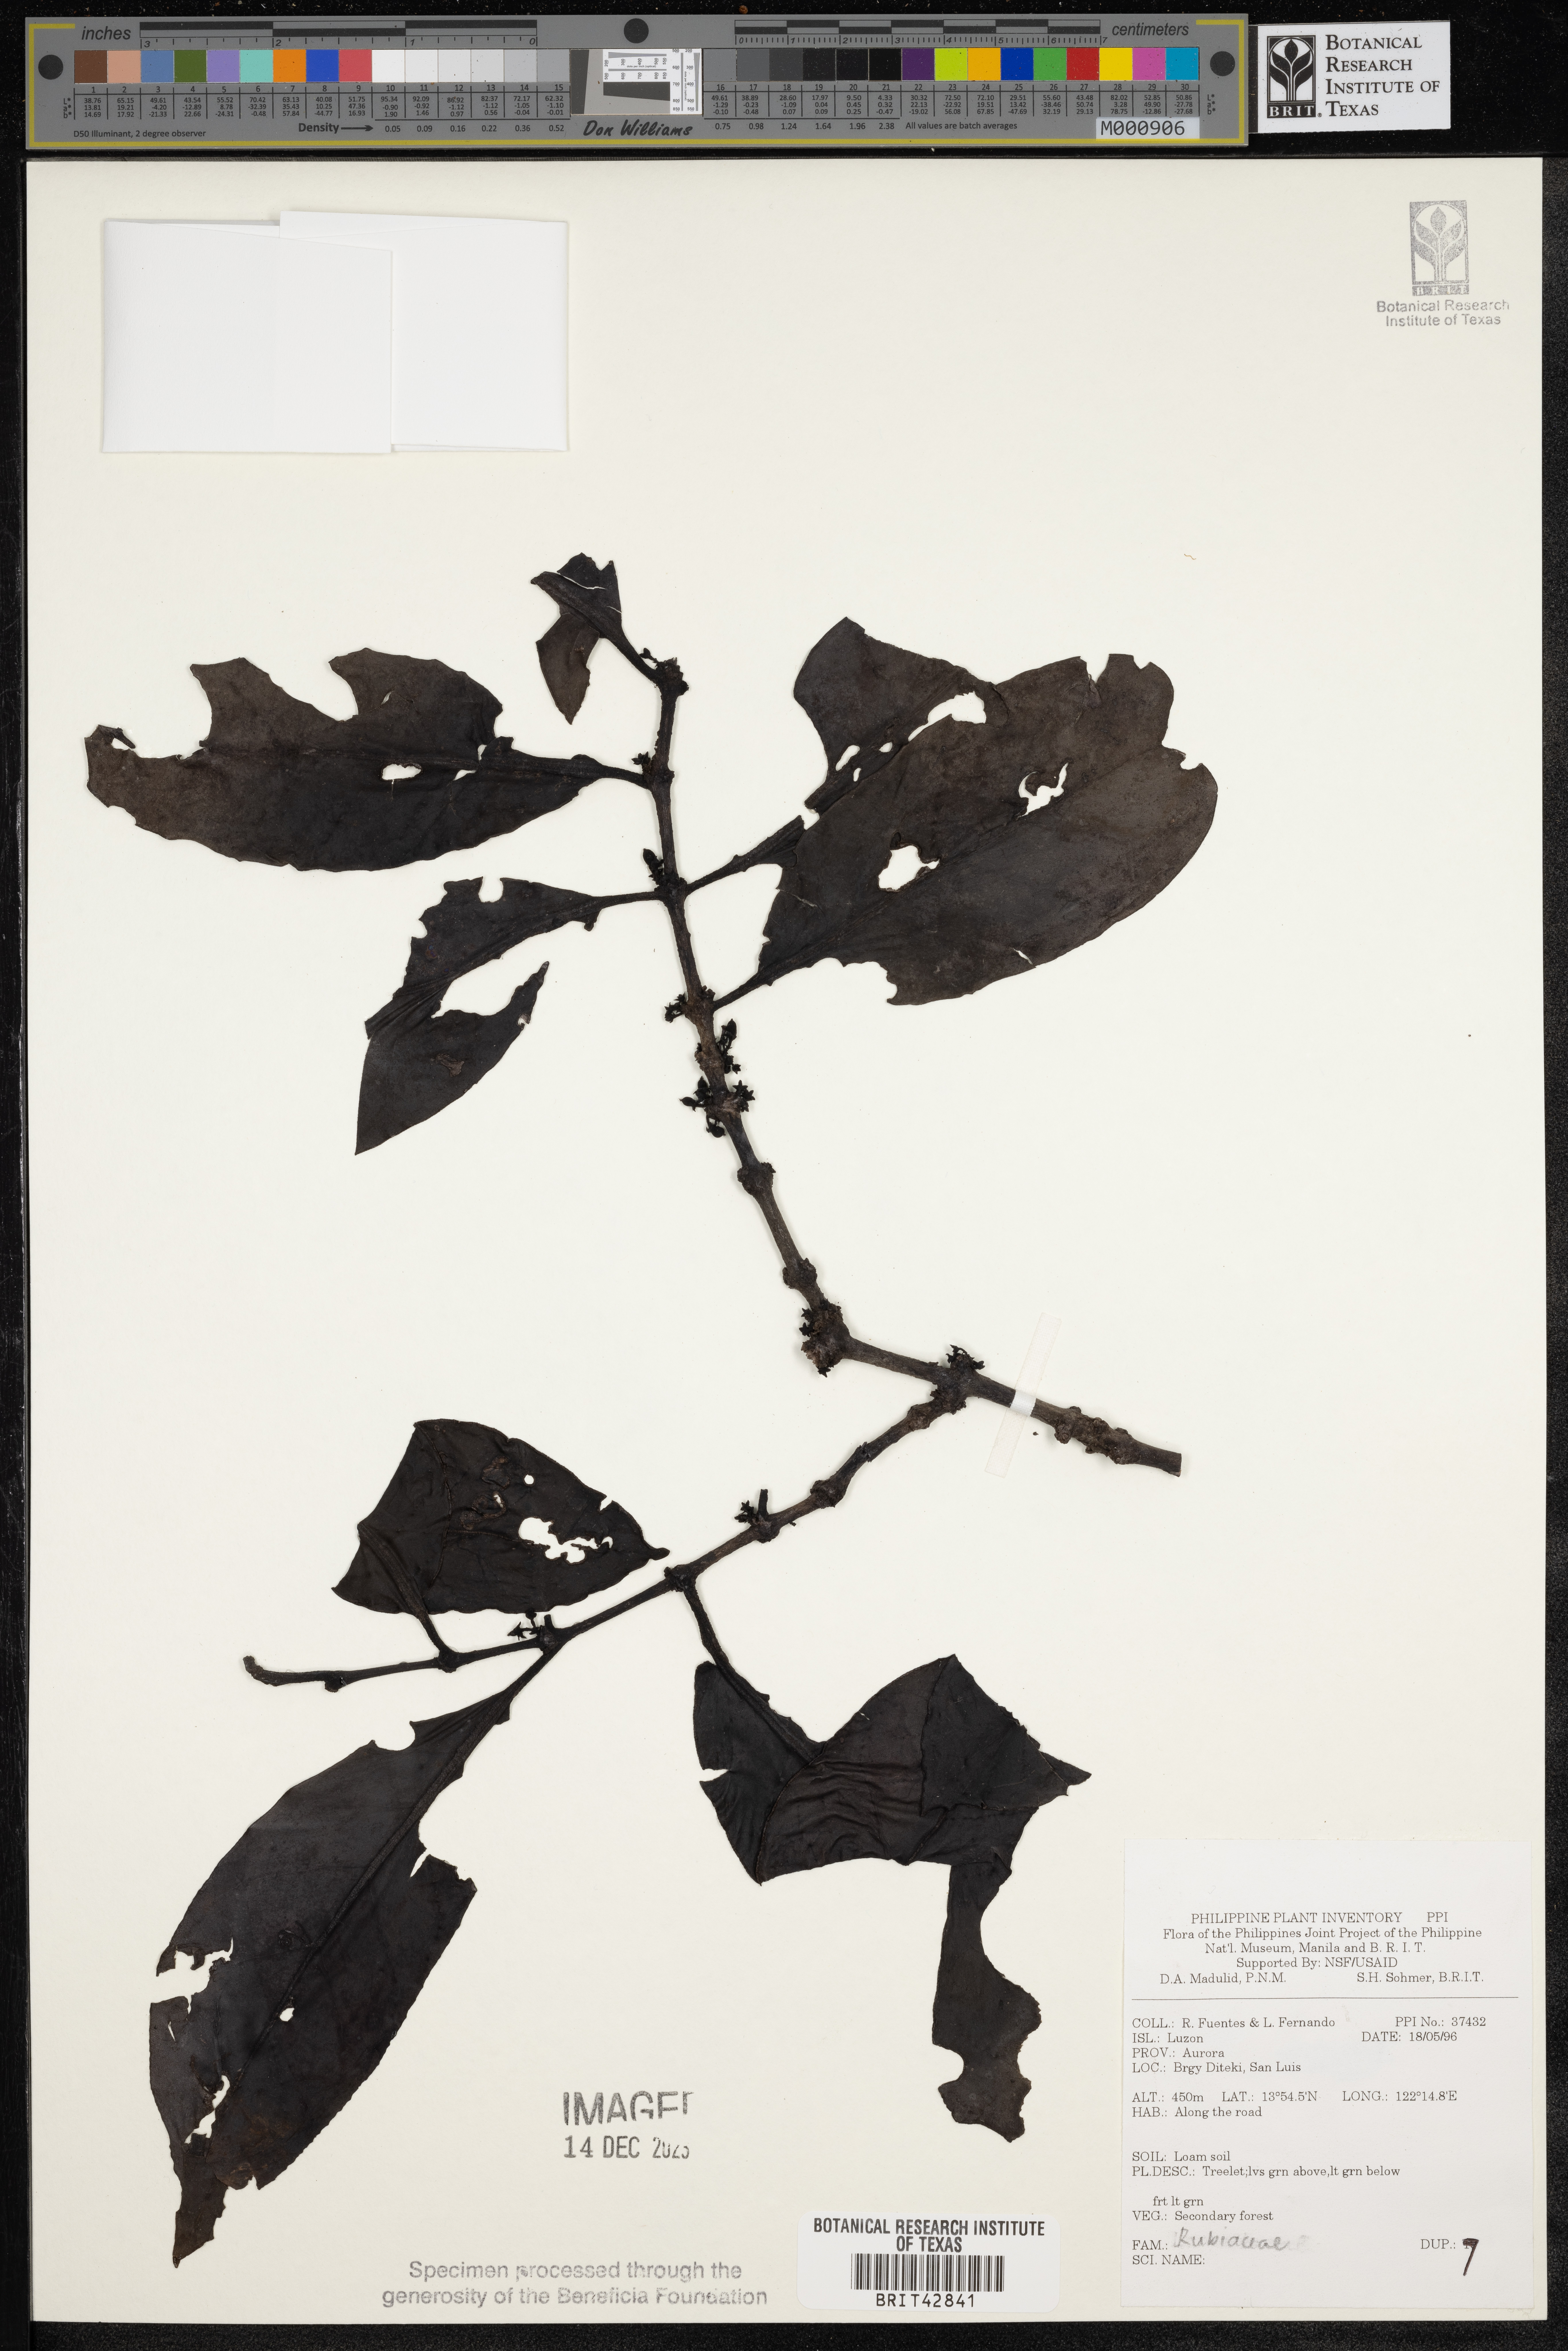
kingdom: Plantae
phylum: Tracheophyta
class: Magnoliopsida
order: Gentianales
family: Rubiaceae
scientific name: Rubiaceae
